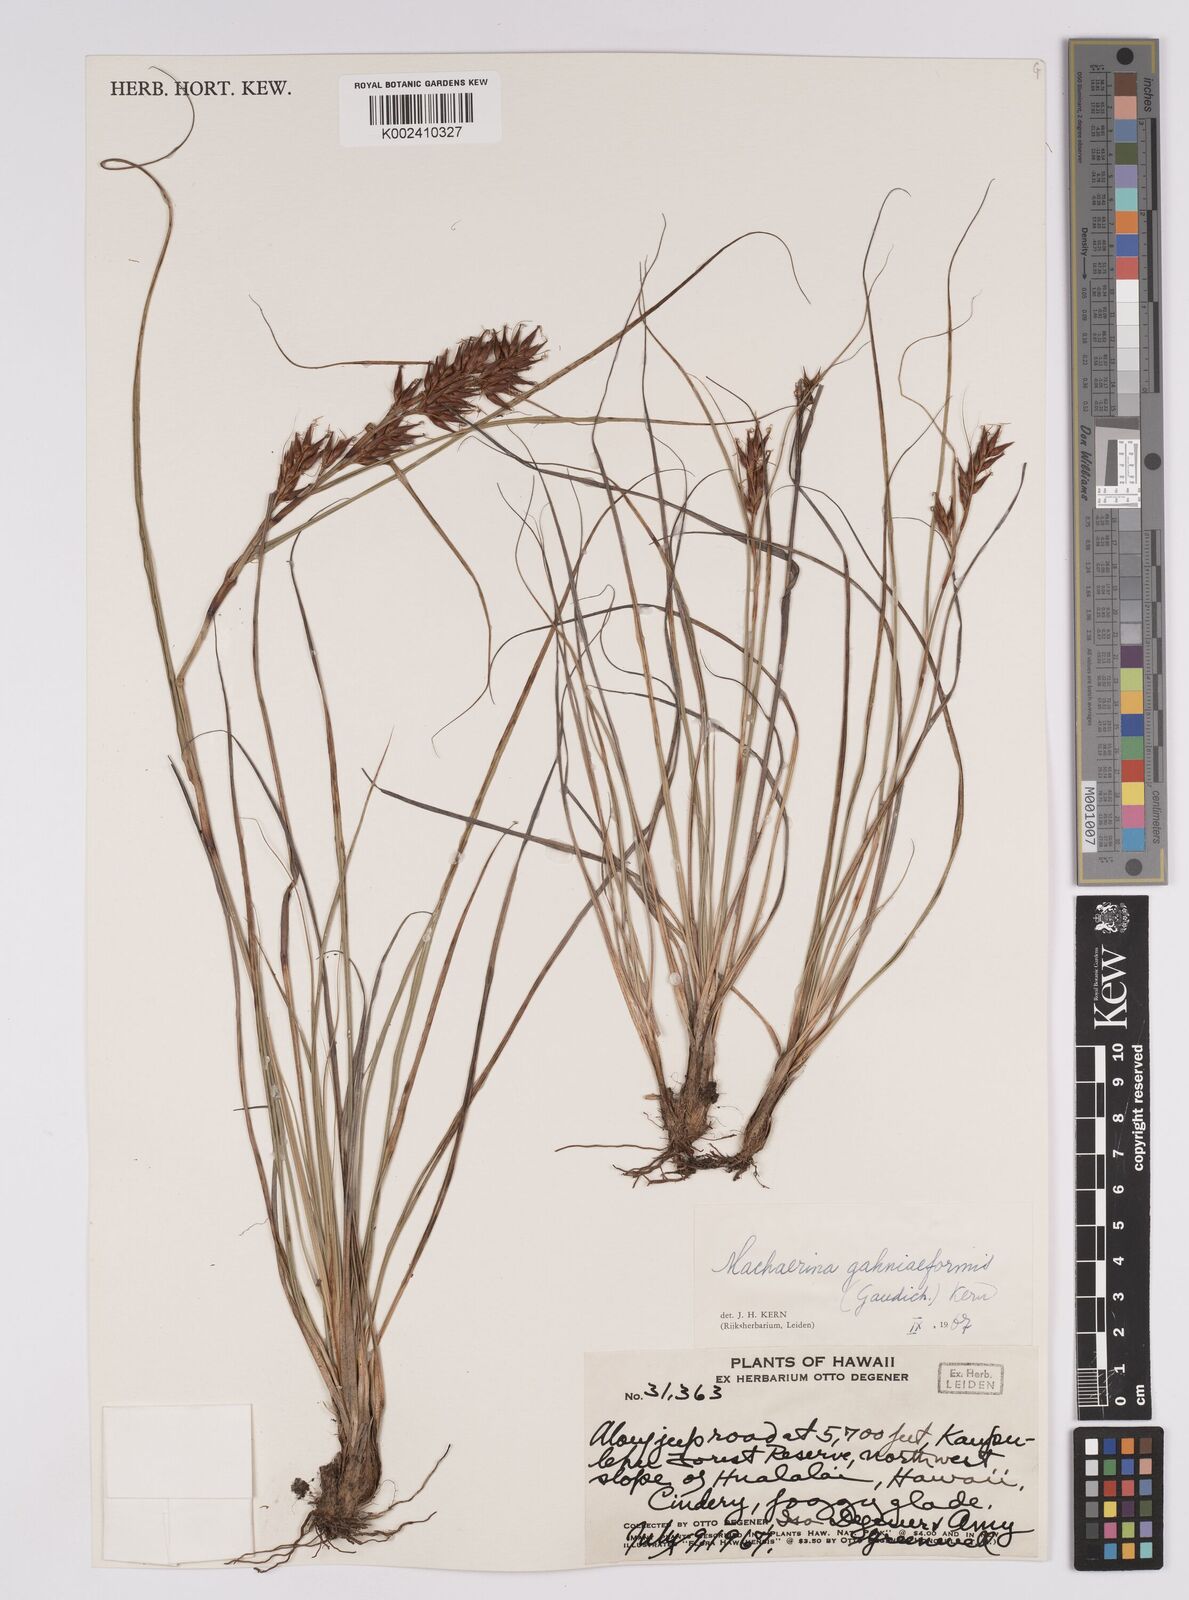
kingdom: Plantae
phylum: Tracheophyta
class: Liliopsida
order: Poales
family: Cyperaceae
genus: Morelotia
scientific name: Morelotia gahniiformis
